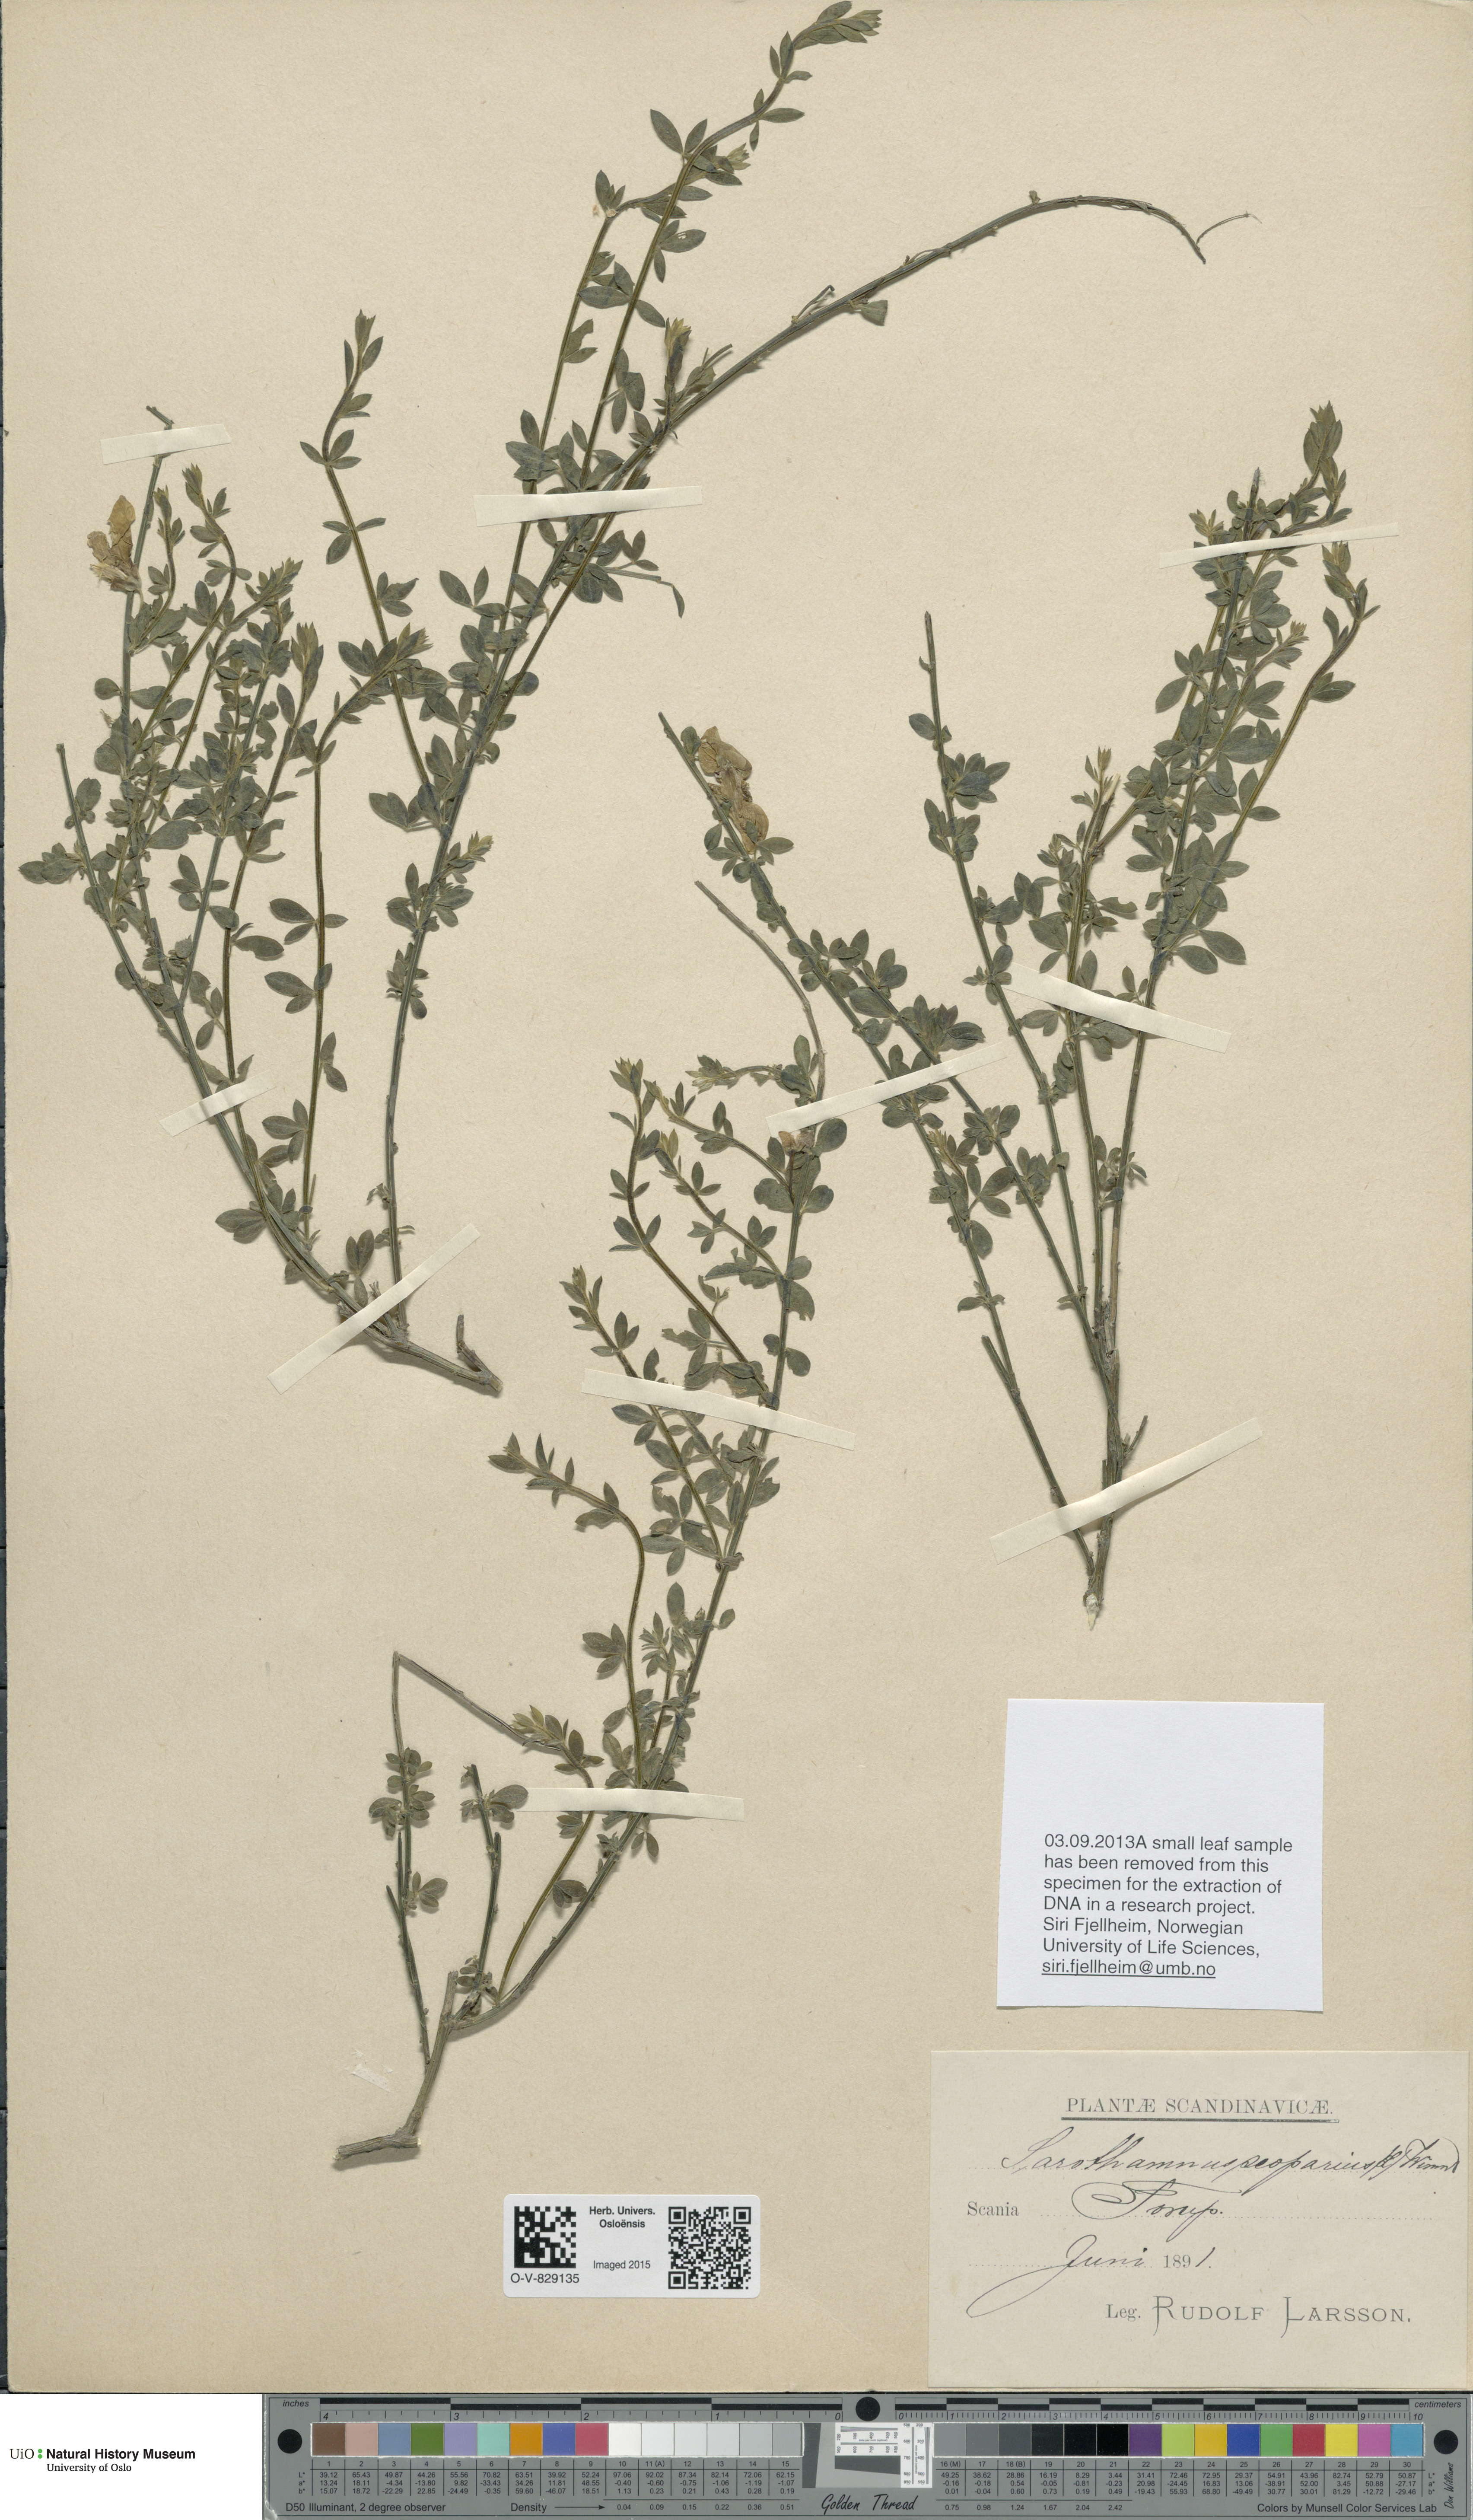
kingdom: Plantae
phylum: Tracheophyta
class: Magnoliopsida
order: Fabales
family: Fabaceae
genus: Cytisus
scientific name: Cytisus scoparius
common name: Scotch broom
